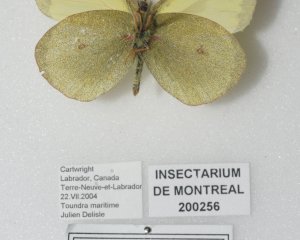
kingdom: Animalia
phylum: Arthropoda
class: Insecta
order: Lepidoptera
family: Pieridae
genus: Colias
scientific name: Colias pelidne
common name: Pelidne Sulphur
